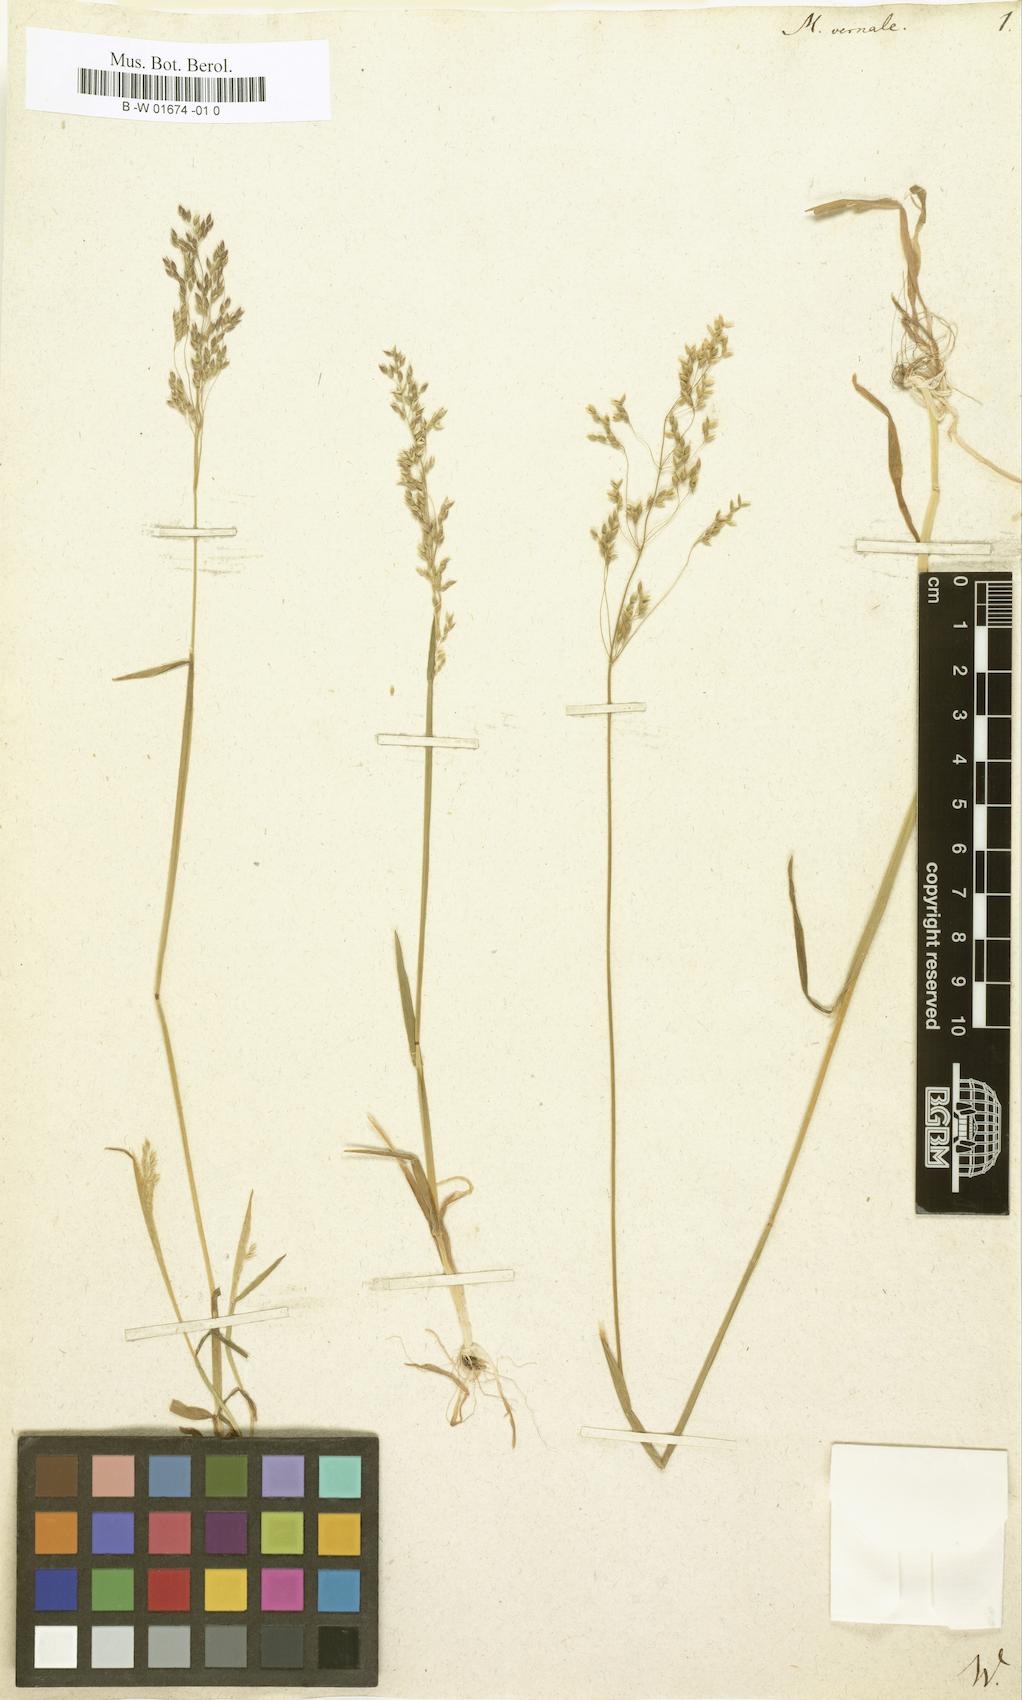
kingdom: Plantae
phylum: Tracheophyta
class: Liliopsida
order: Poales
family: Poaceae
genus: Milium
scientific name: Milium vernale
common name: Early millet
